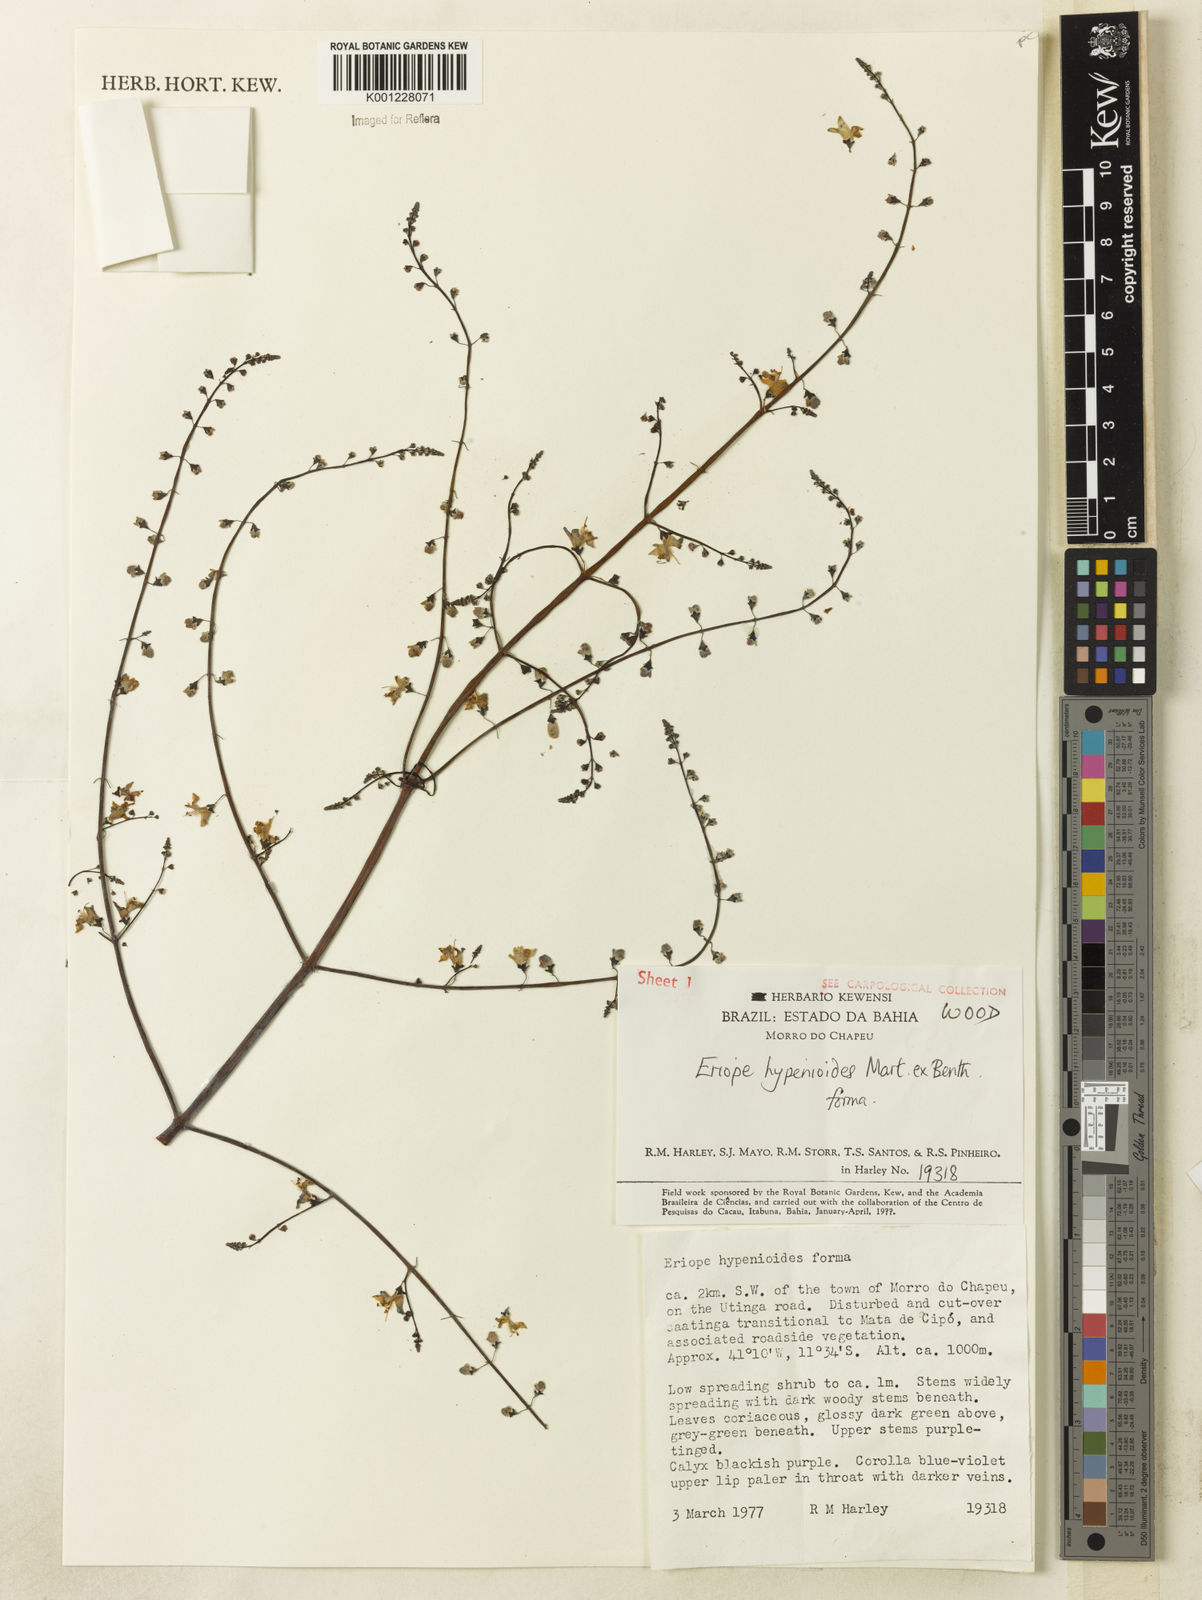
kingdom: Plantae
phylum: Tracheophyta
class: Magnoliopsida
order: Lamiales
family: Lamiaceae
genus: Eriope
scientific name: Eriope hypenioides
